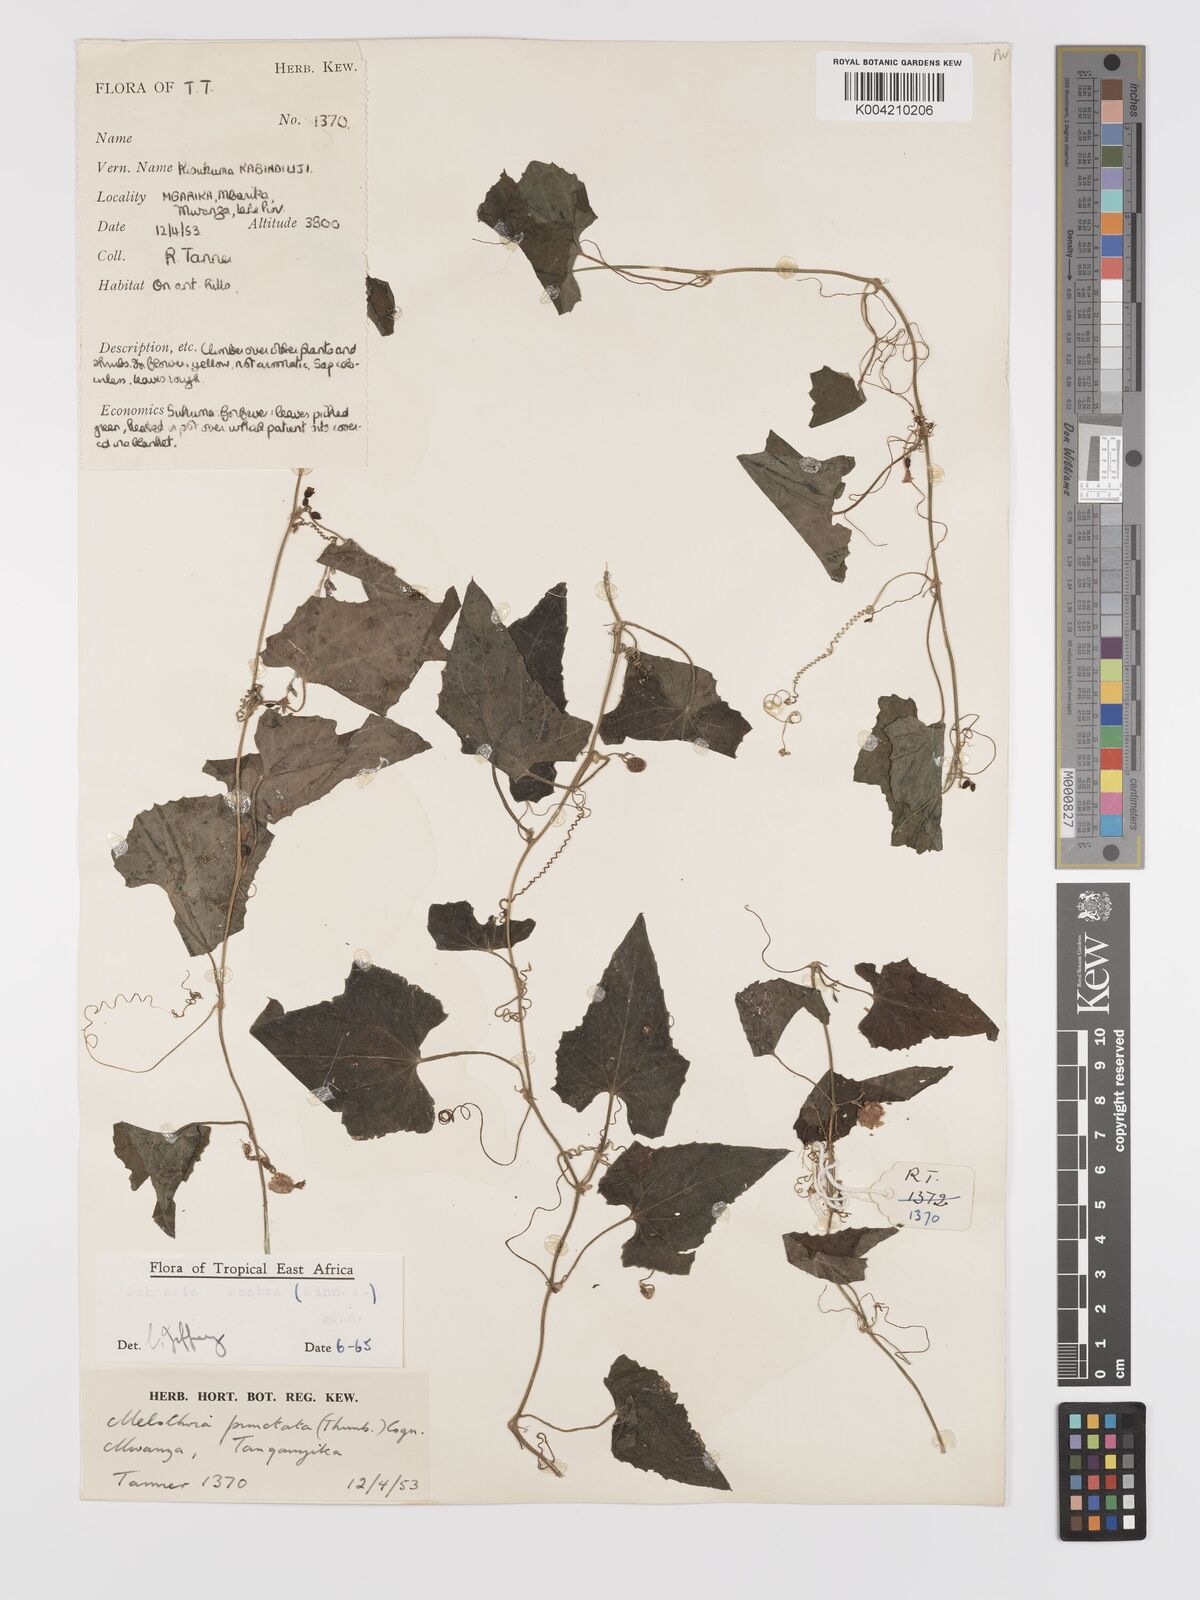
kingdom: Plantae
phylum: Tracheophyta
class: Magnoliopsida
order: Cucurbitales
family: Cucurbitaceae
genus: Zehneria
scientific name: Zehneria scabra
